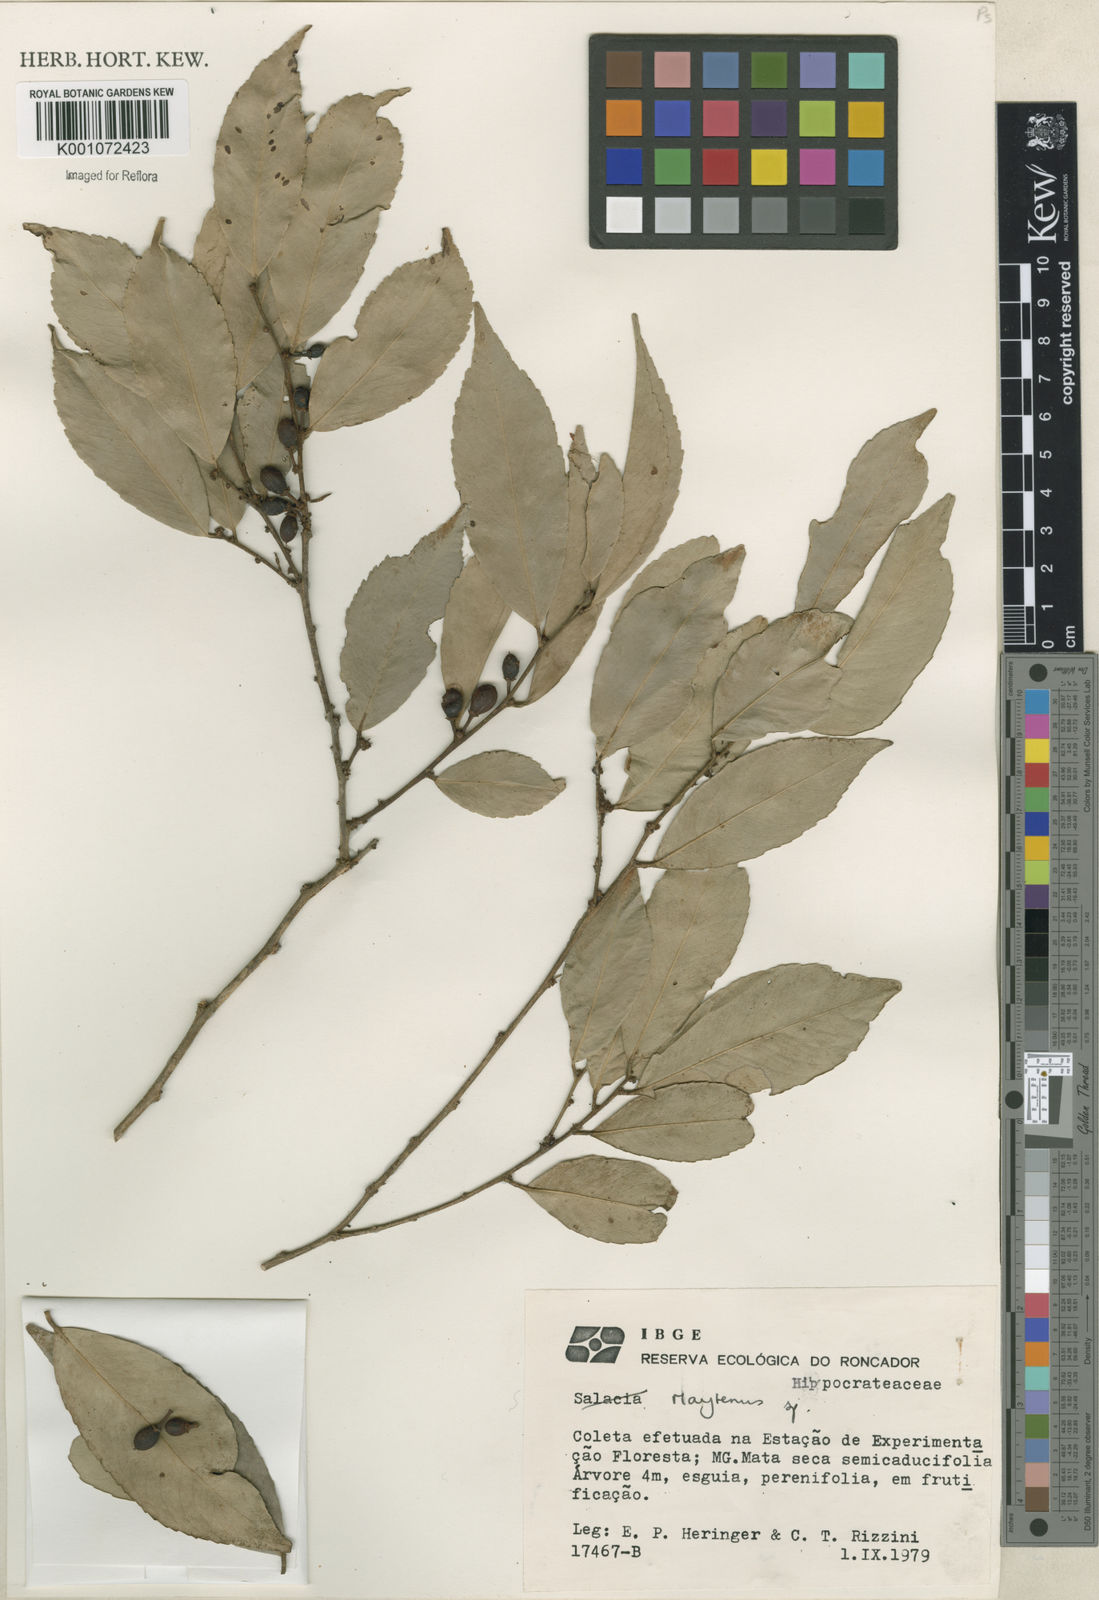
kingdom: Plantae
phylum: Tracheophyta
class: Magnoliopsida
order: Celastrales
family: Celastraceae
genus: Maytenus
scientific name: Maytenus
